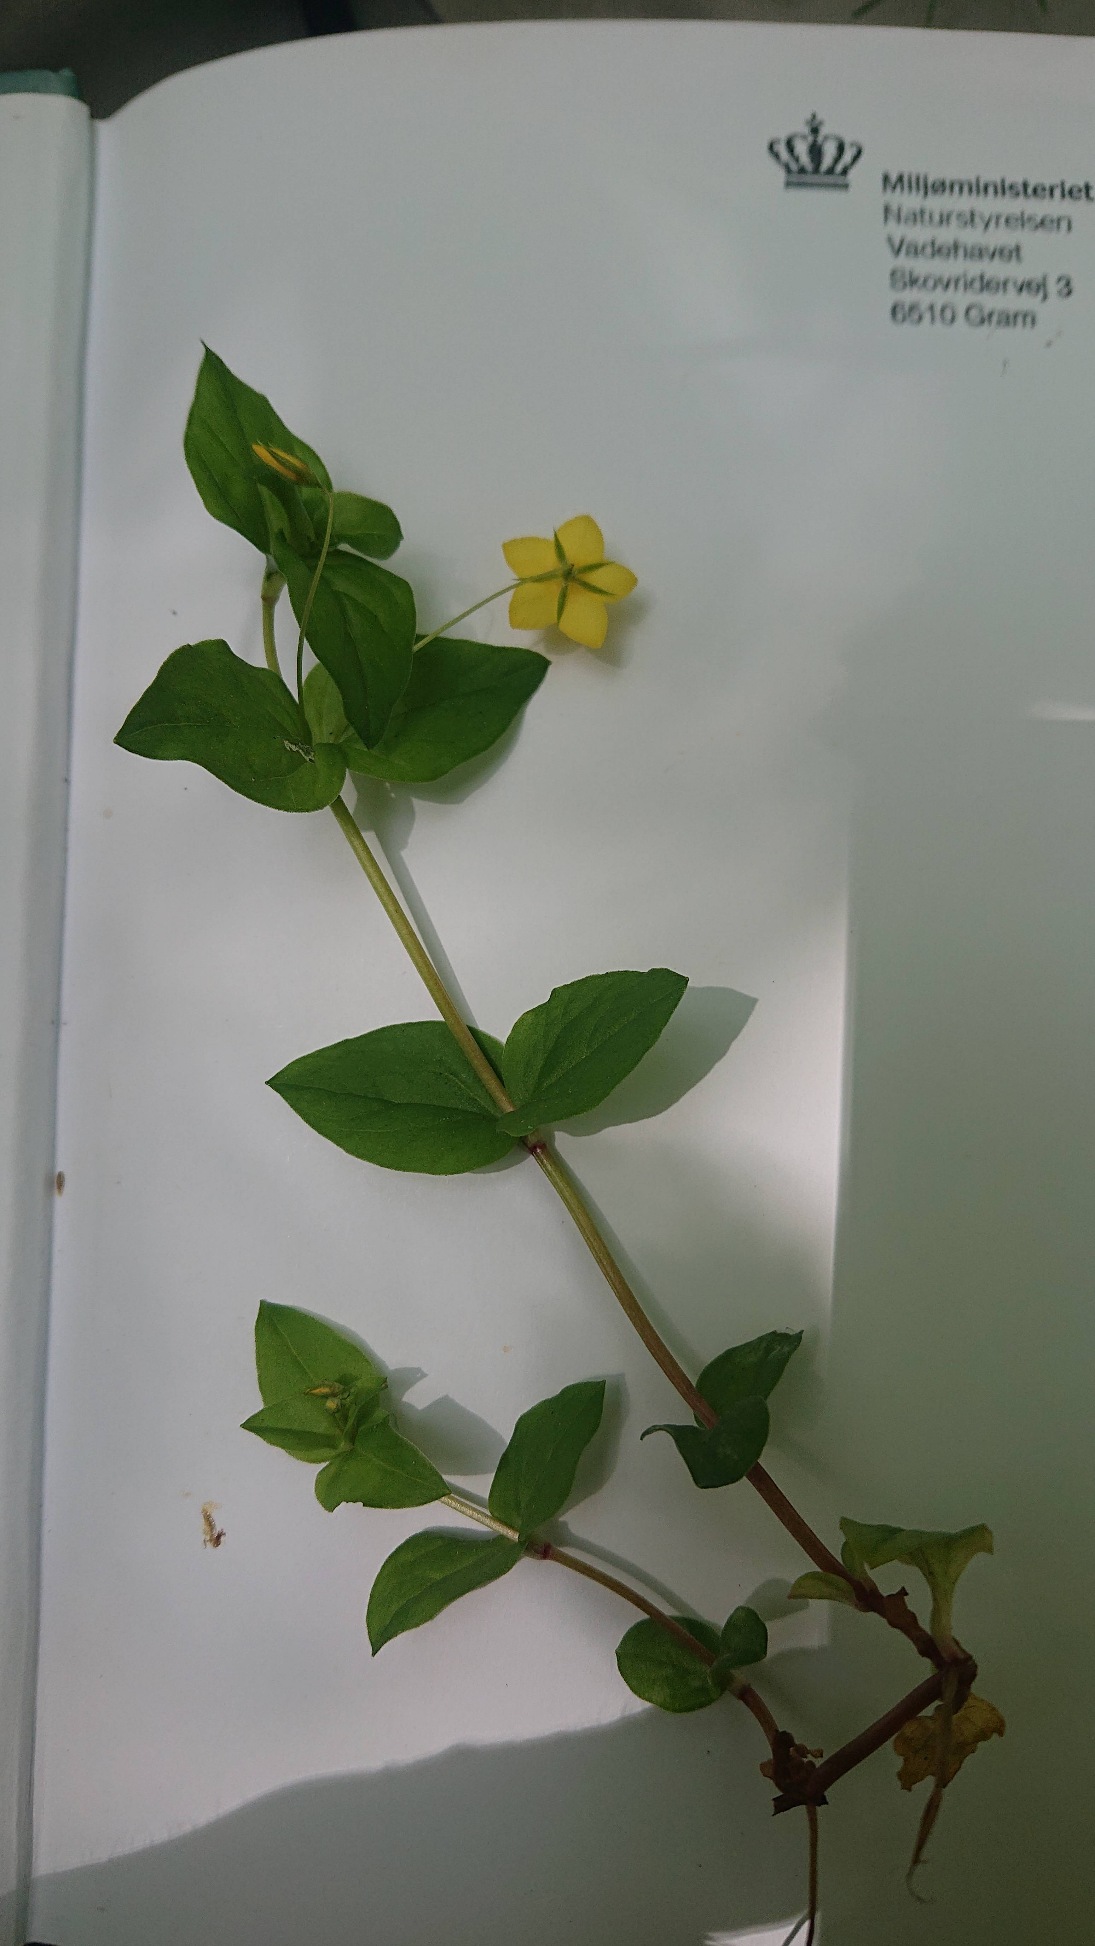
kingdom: Plantae
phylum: Tracheophyta
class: Magnoliopsida
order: Ericales
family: Primulaceae
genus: Lysimachia
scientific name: Lysimachia nemorum
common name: Lund-fredløs
